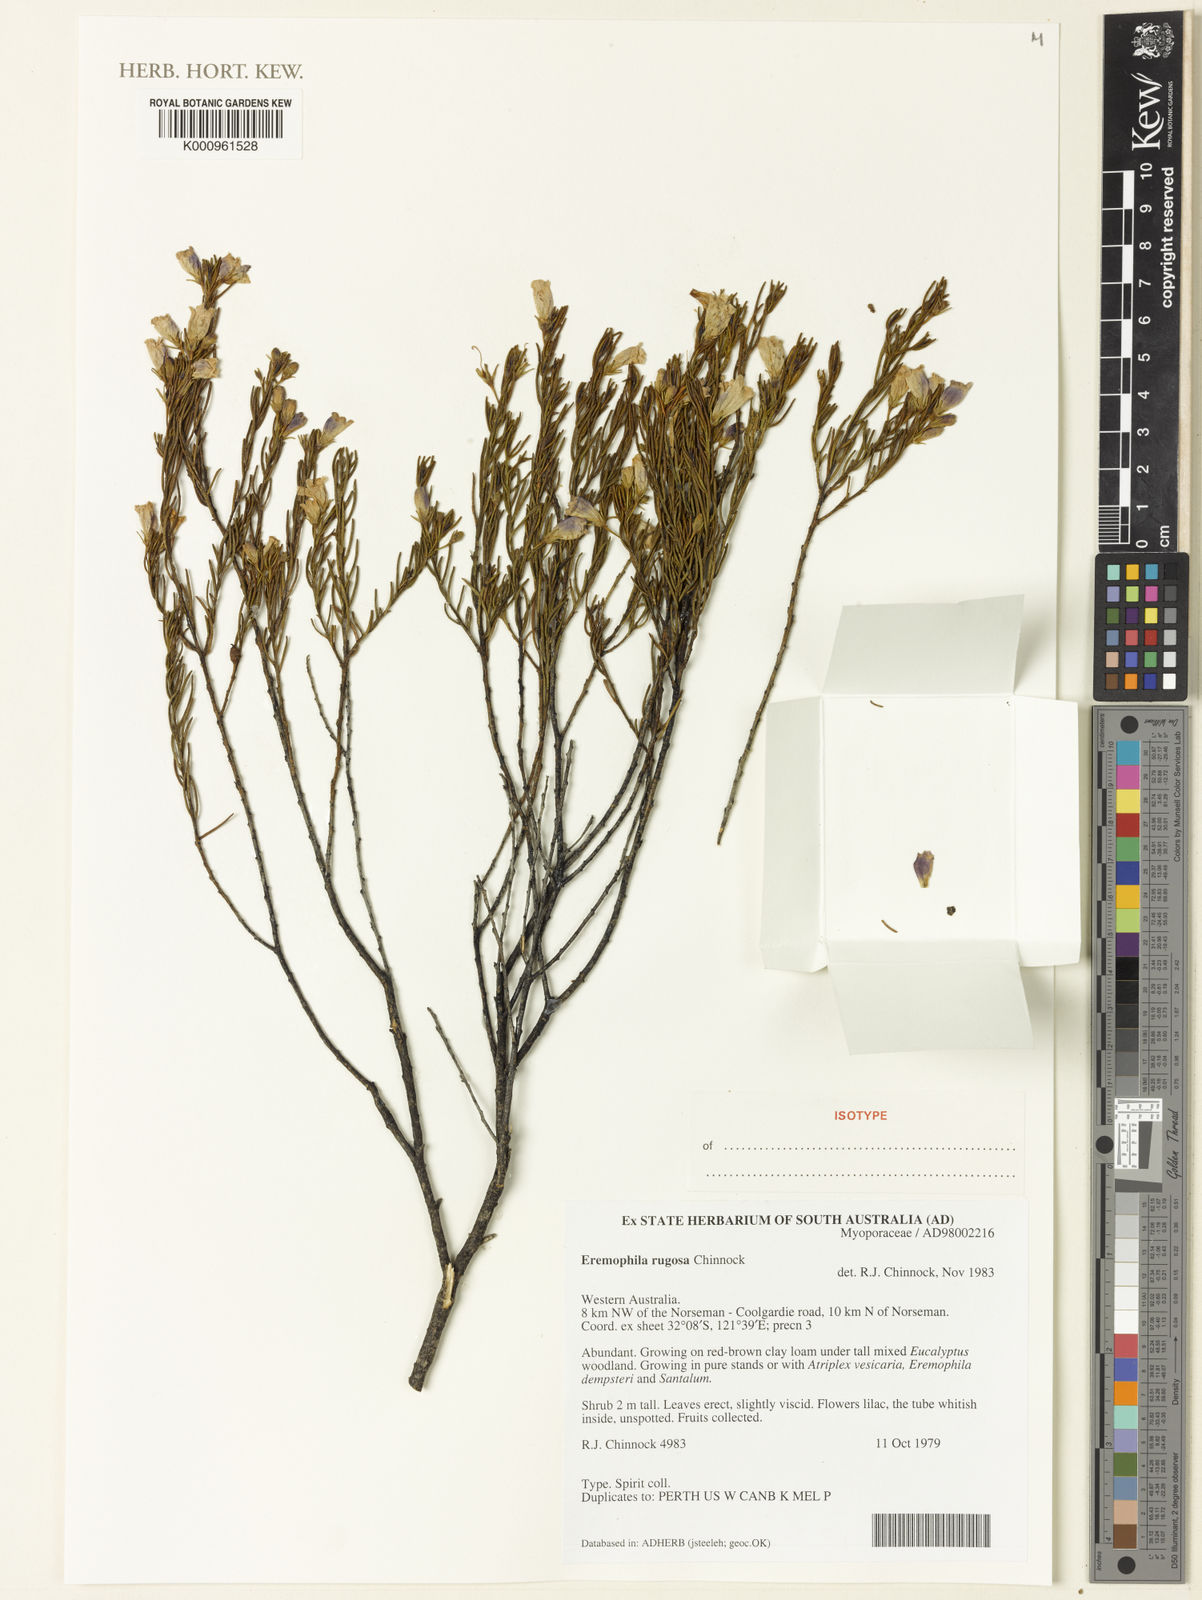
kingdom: Plantae
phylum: Tracheophyta
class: Magnoliopsida
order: Lamiales
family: Scrophulariaceae
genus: Eremophila
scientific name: Eremophila rugosa
